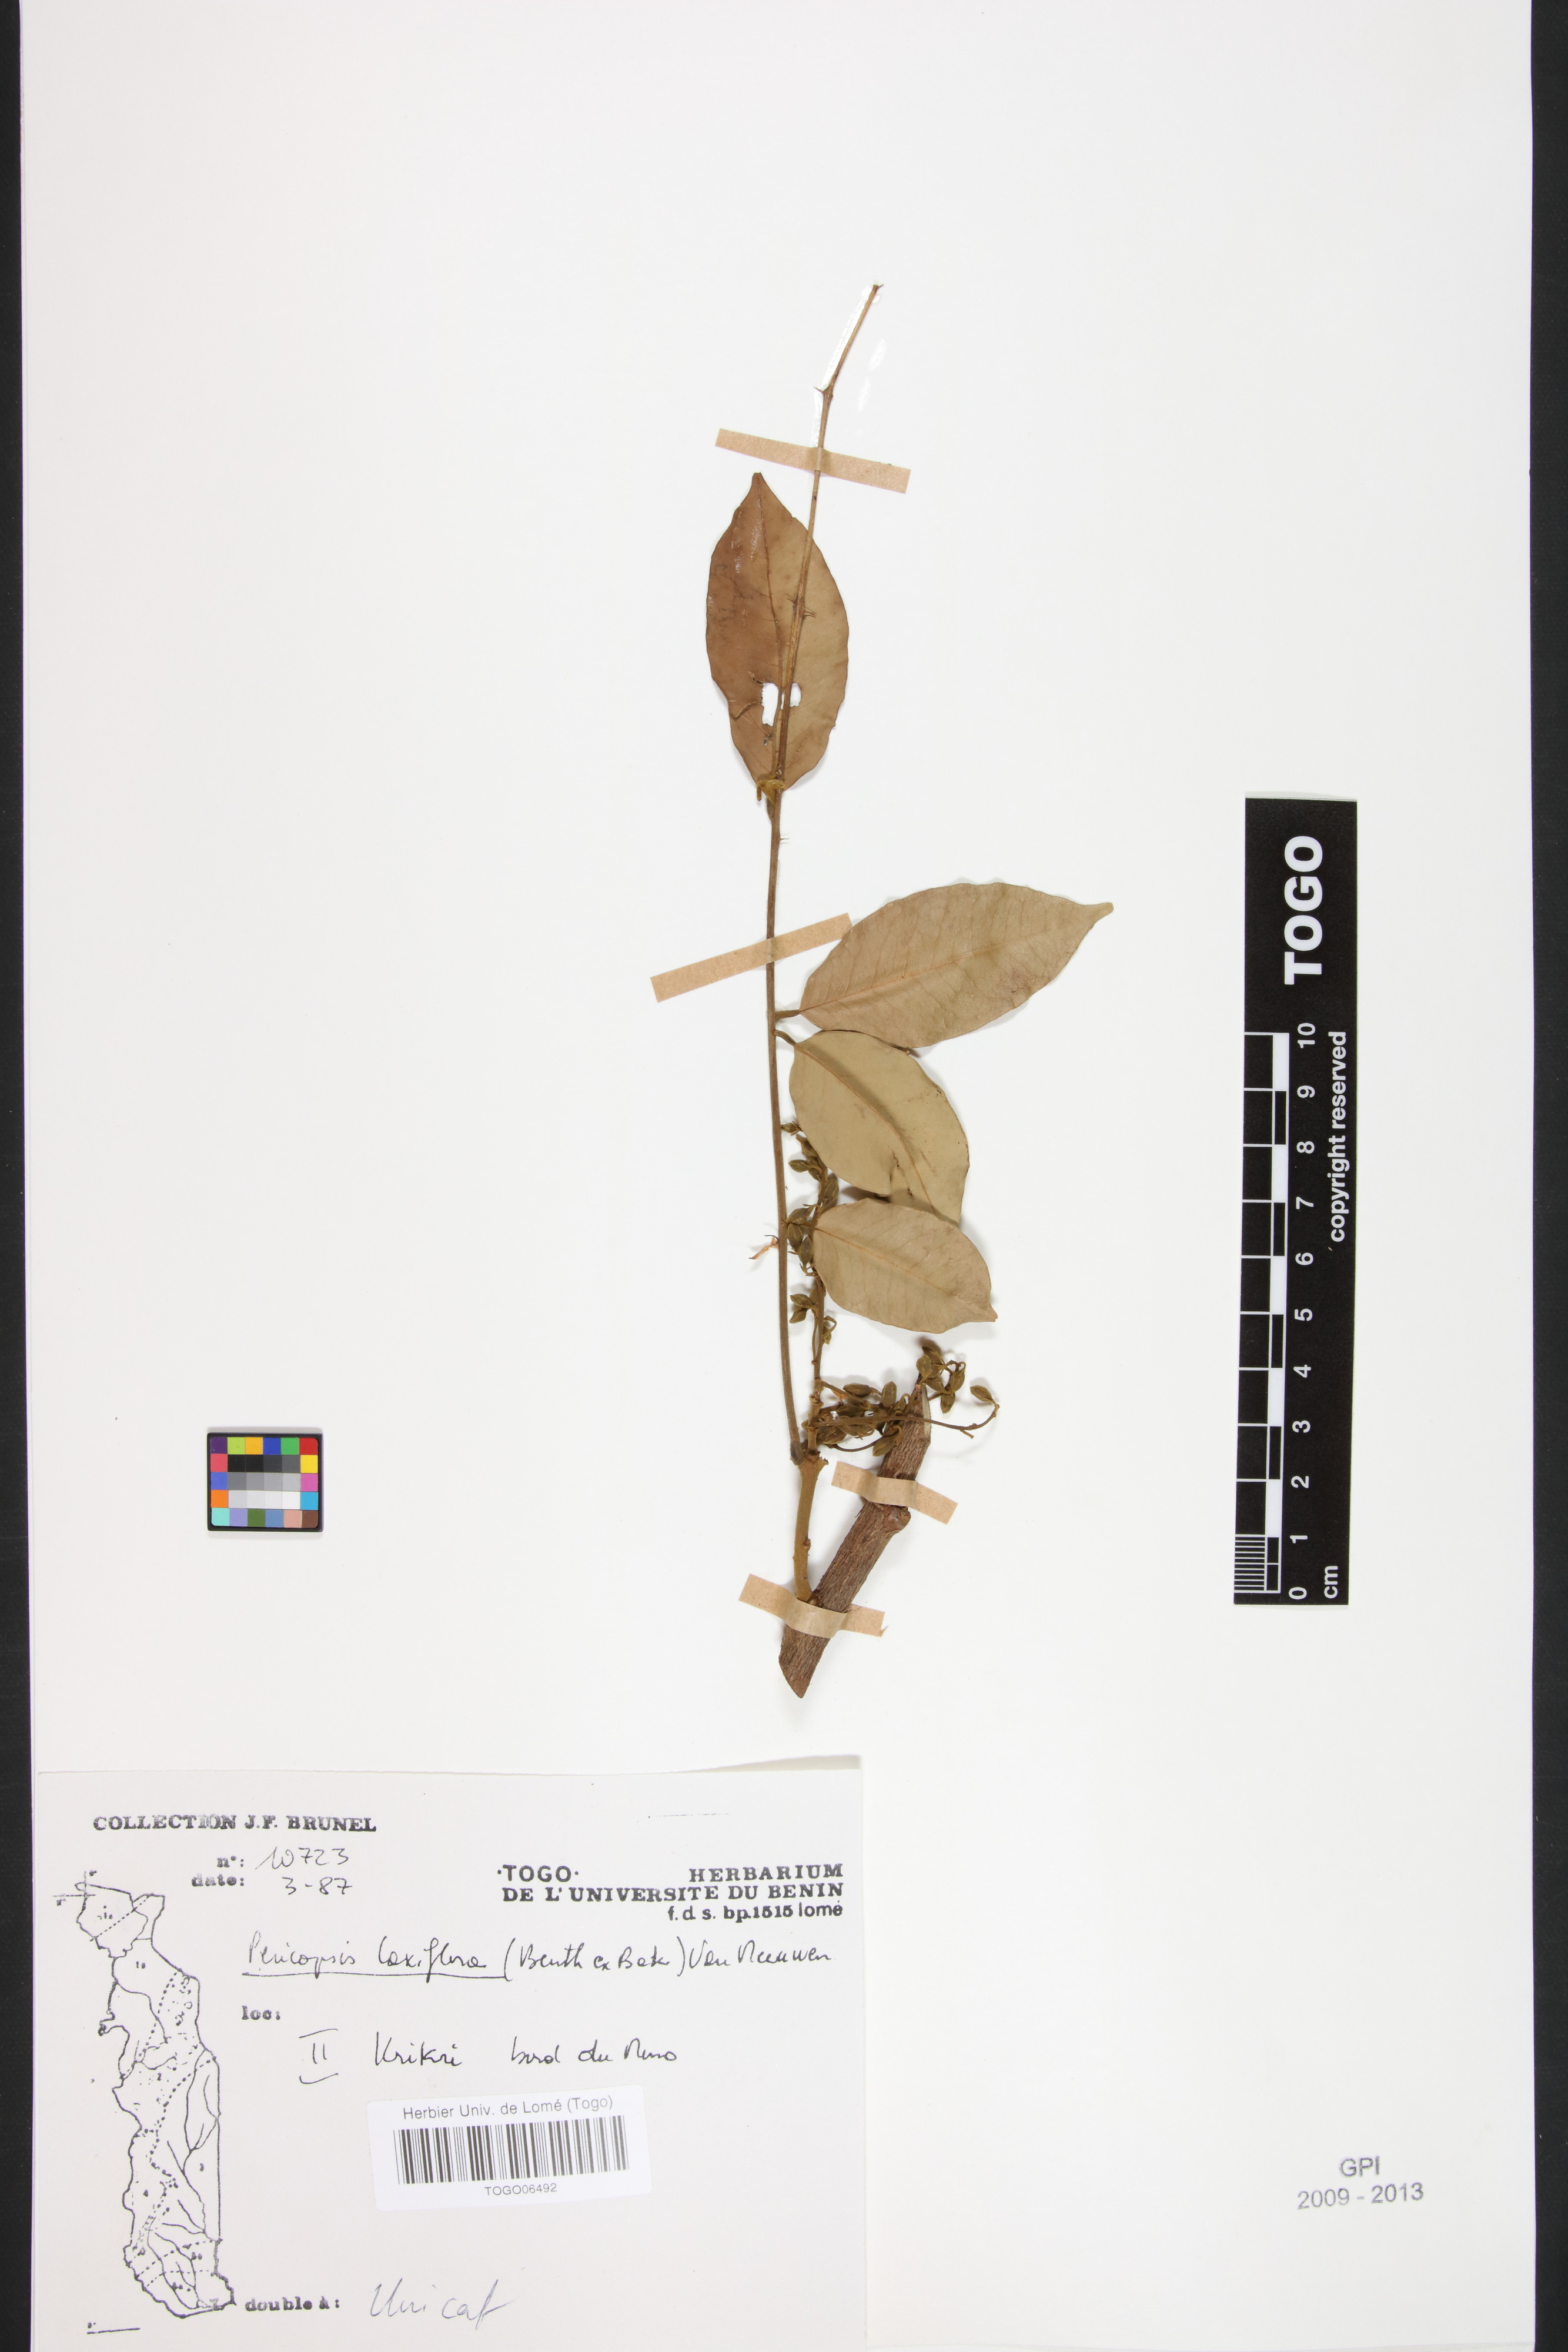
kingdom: Plantae
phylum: Tracheophyta
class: Magnoliopsida
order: Fabales
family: Fabaceae
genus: Pericopsis
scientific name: Pericopsis laxiflora
